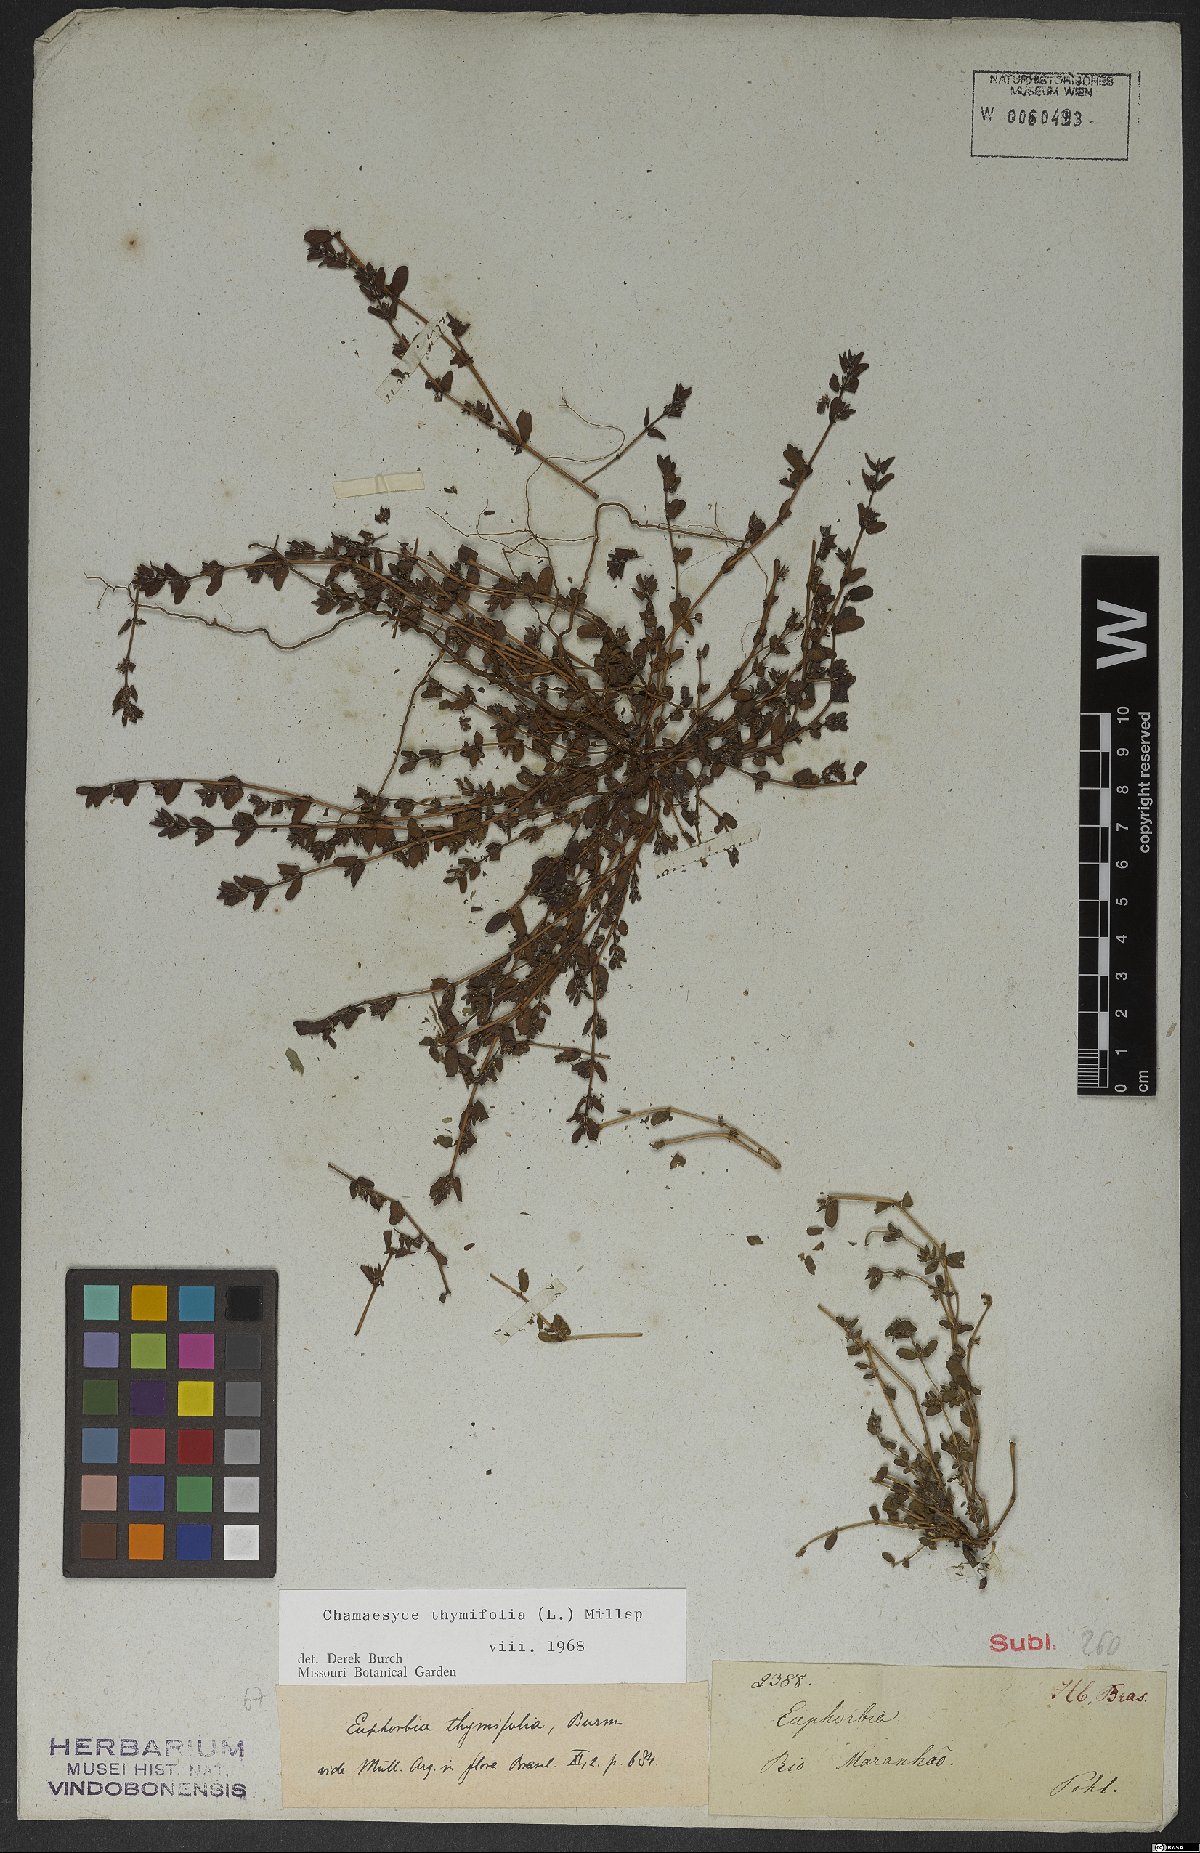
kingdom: Plantae
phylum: Tracheophyta
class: Magnoliopsida
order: Malpighiales
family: Euphorbiaceae
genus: Euphorbia
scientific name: Euphorbia scordiifolia
